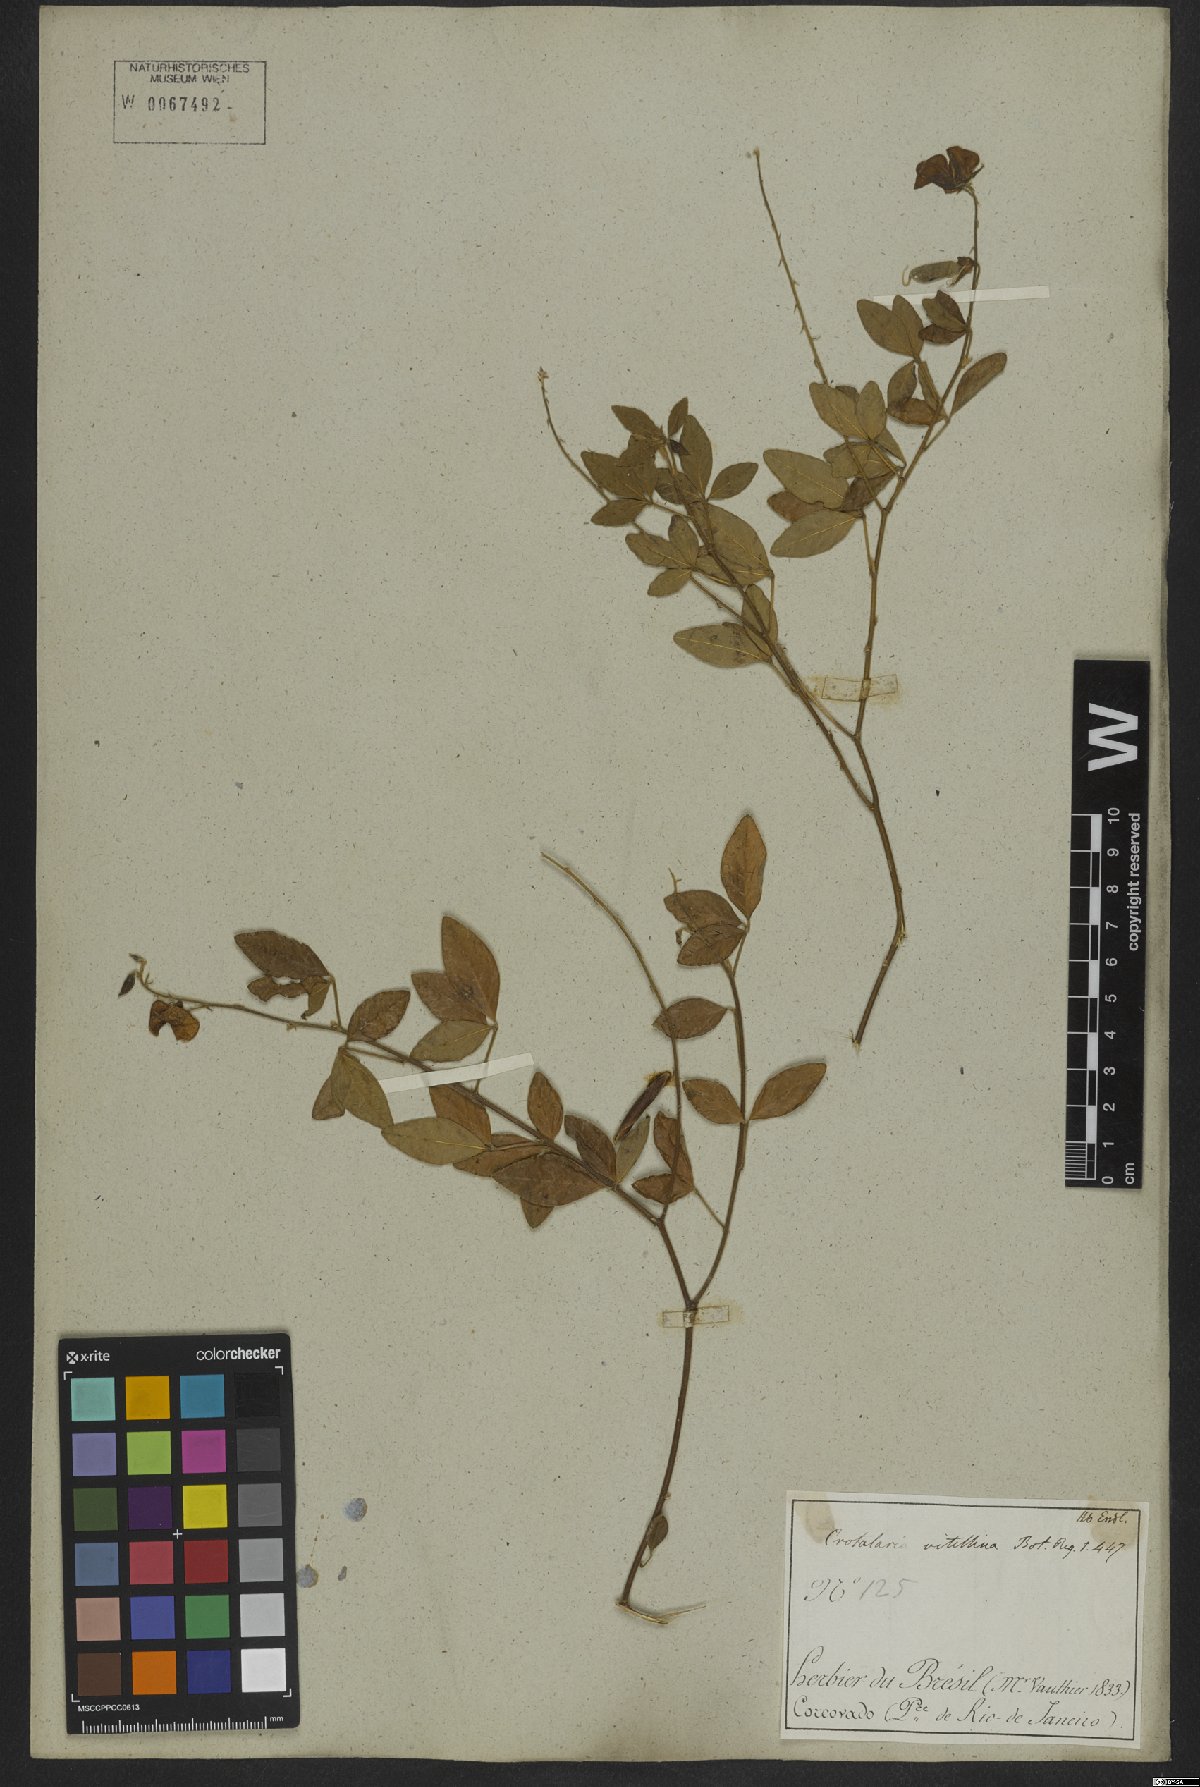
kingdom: Plantae
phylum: Tracheophyta
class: Magnoliopsida
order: Fabales
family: Fabaceae
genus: Crotalaria
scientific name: Crotalaria vitellina
